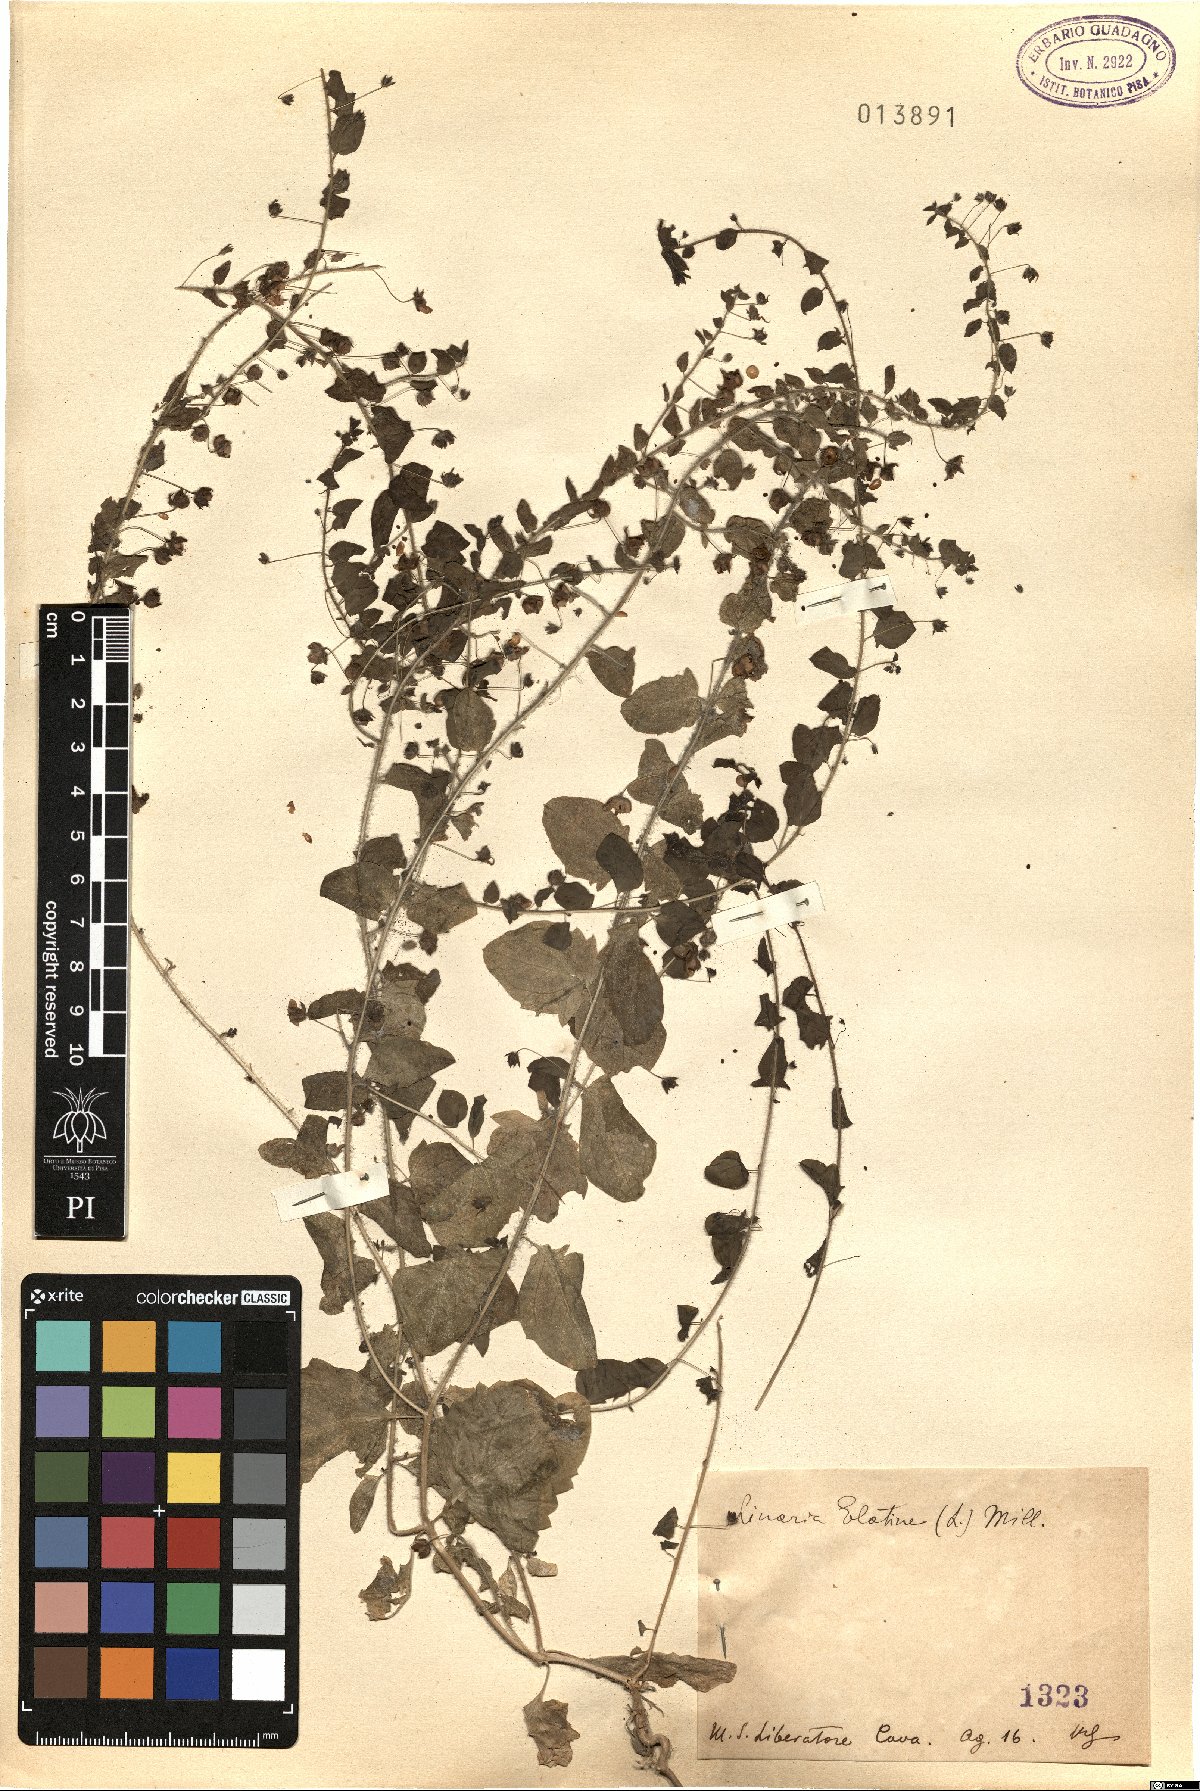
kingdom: Plantae
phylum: Tracheophyta
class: Magnoliopsida
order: Lamiales
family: Plantaginaceae
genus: Kickxia
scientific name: Kickxia elatine
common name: Sharp-leaved fluellen
